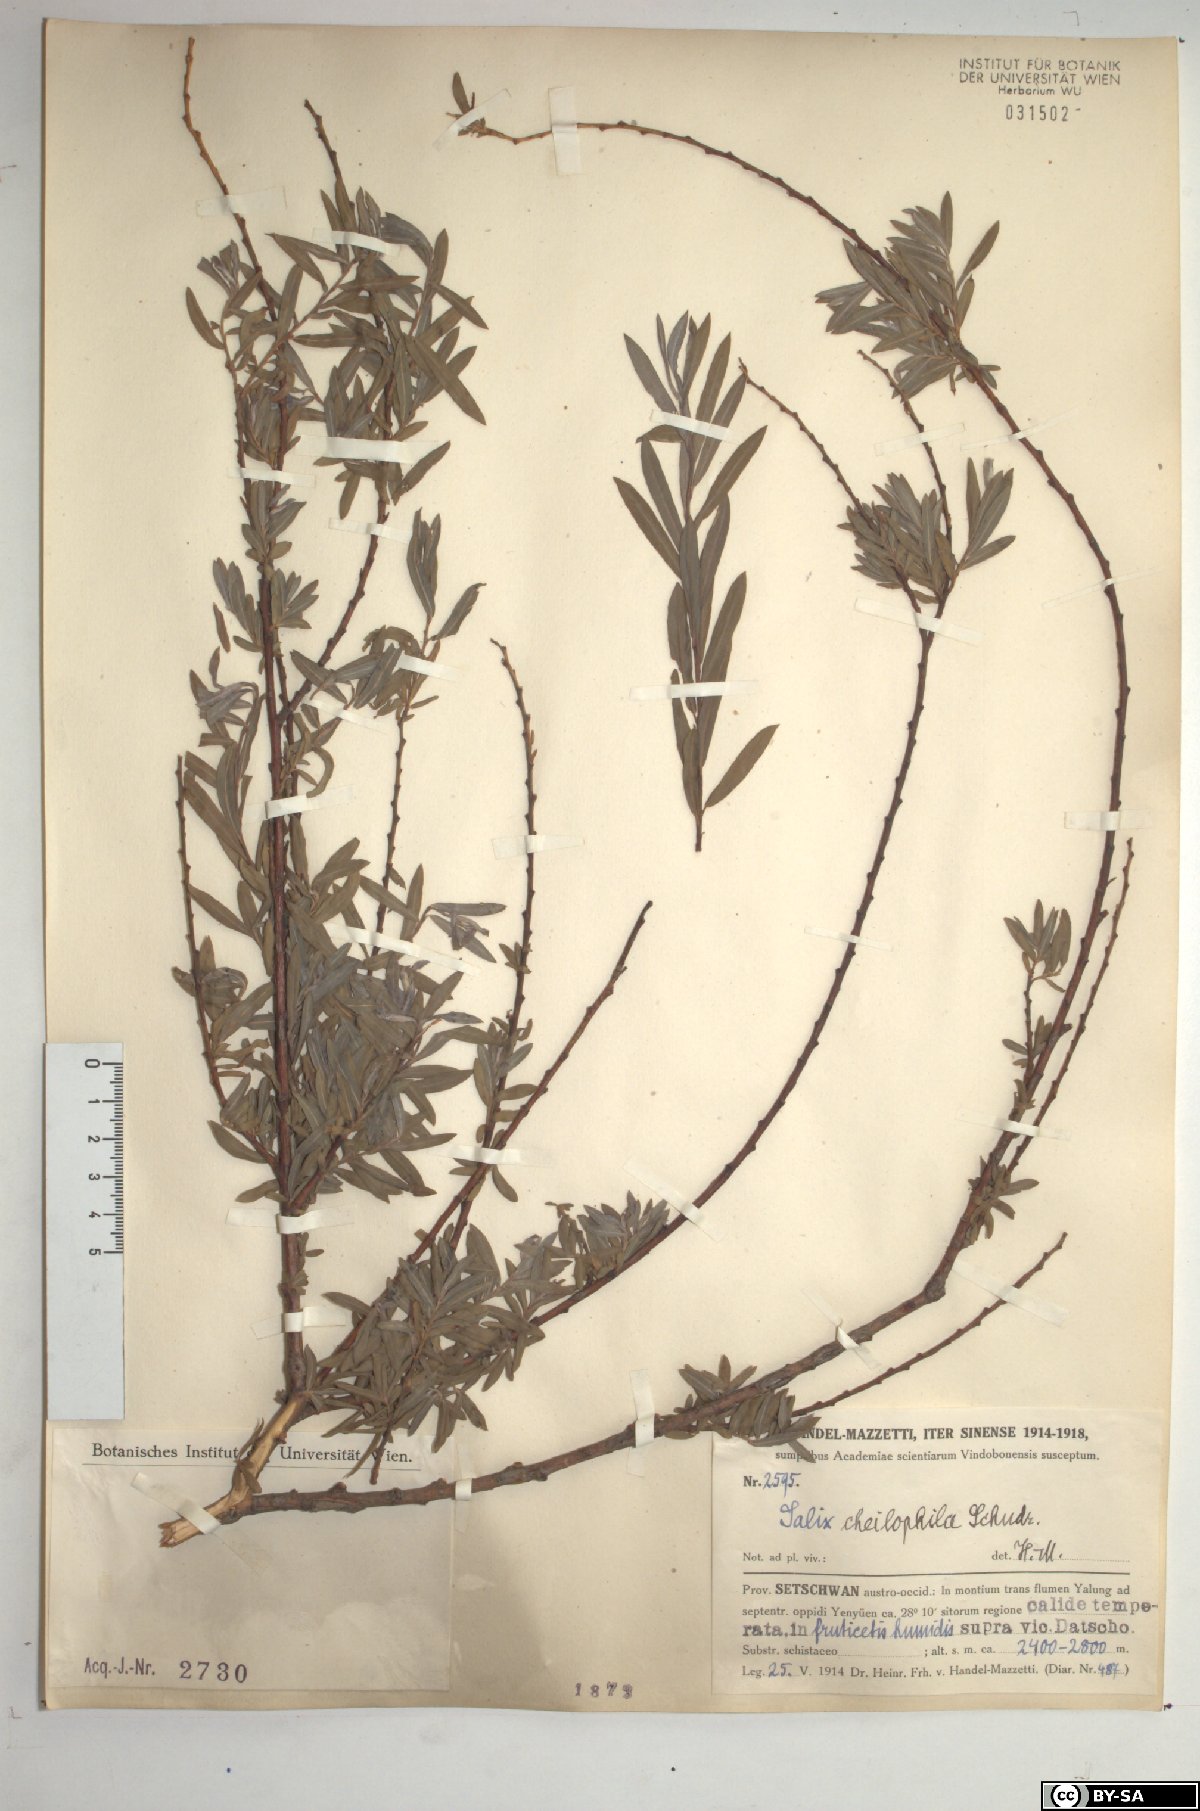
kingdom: Plantae
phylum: Tracheophyta
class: Magnoliopsida
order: Malpighiales
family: Salicaceae
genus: Salix
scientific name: Salix cheilophila
